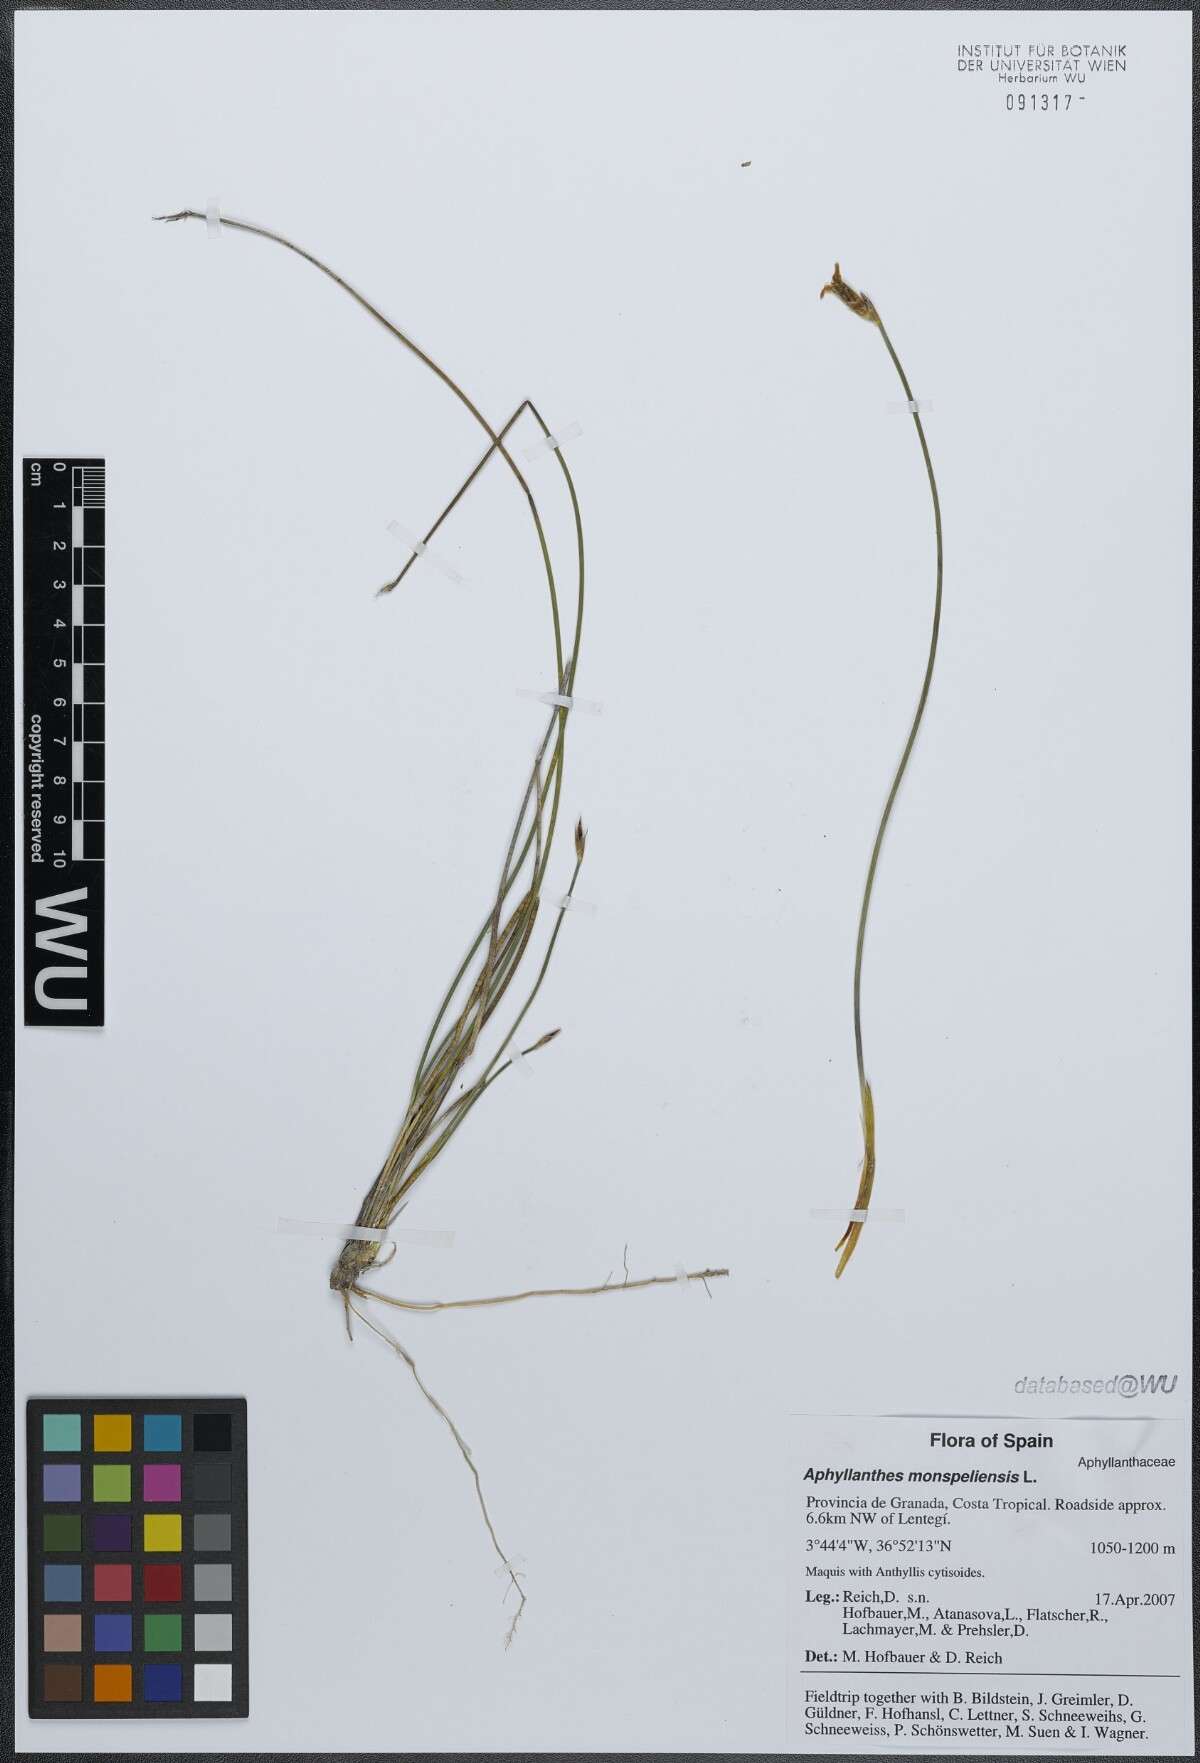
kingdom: Plantae
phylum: Tracheophyta
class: Liliopsida
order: Asparagales
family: Asparagaceae
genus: Aphyllanthes
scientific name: Aphyllanthes monspeliensis
